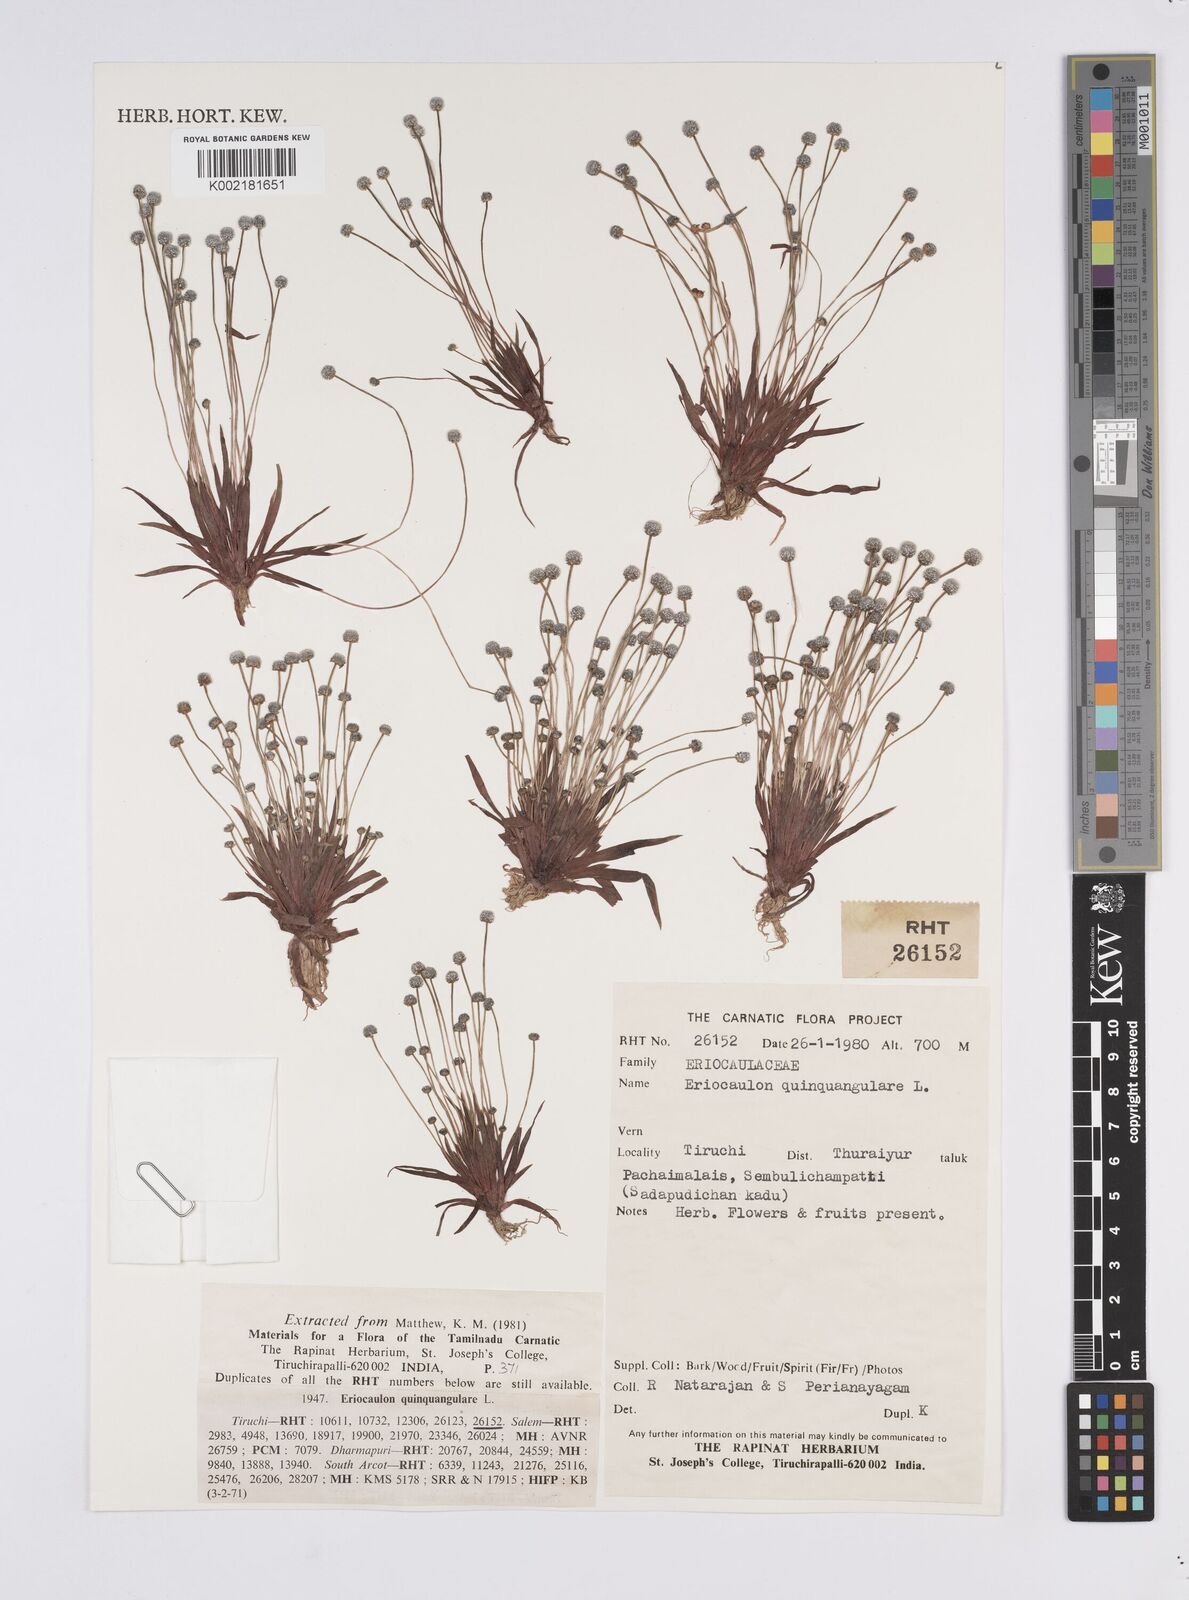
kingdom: Plantae
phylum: Tracheophyta
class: Liliopsida
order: Poales
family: Eriocaulaceae
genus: Eriocaulon
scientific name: Eriocaulon quinquangulare
